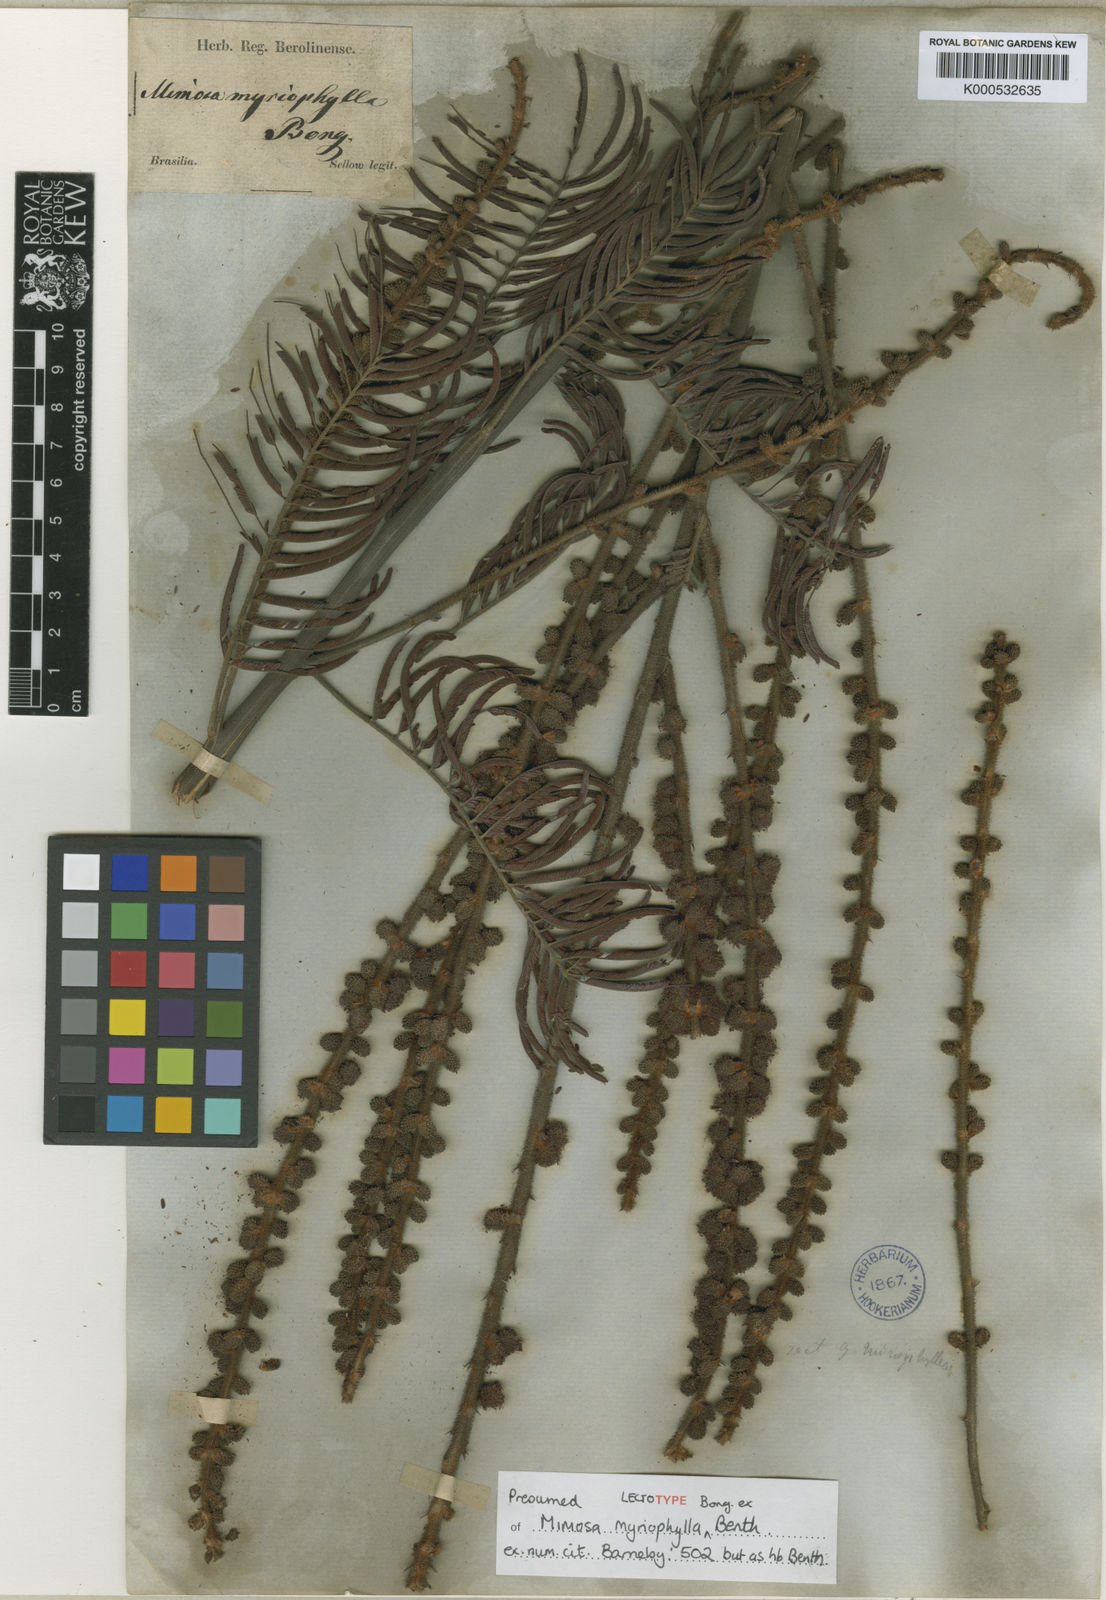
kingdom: Plantae
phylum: Tracheophyta
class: Magnoliopsida
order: Fabales
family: Fabaceae
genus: Mimosa
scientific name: Mimosa myriophylla
